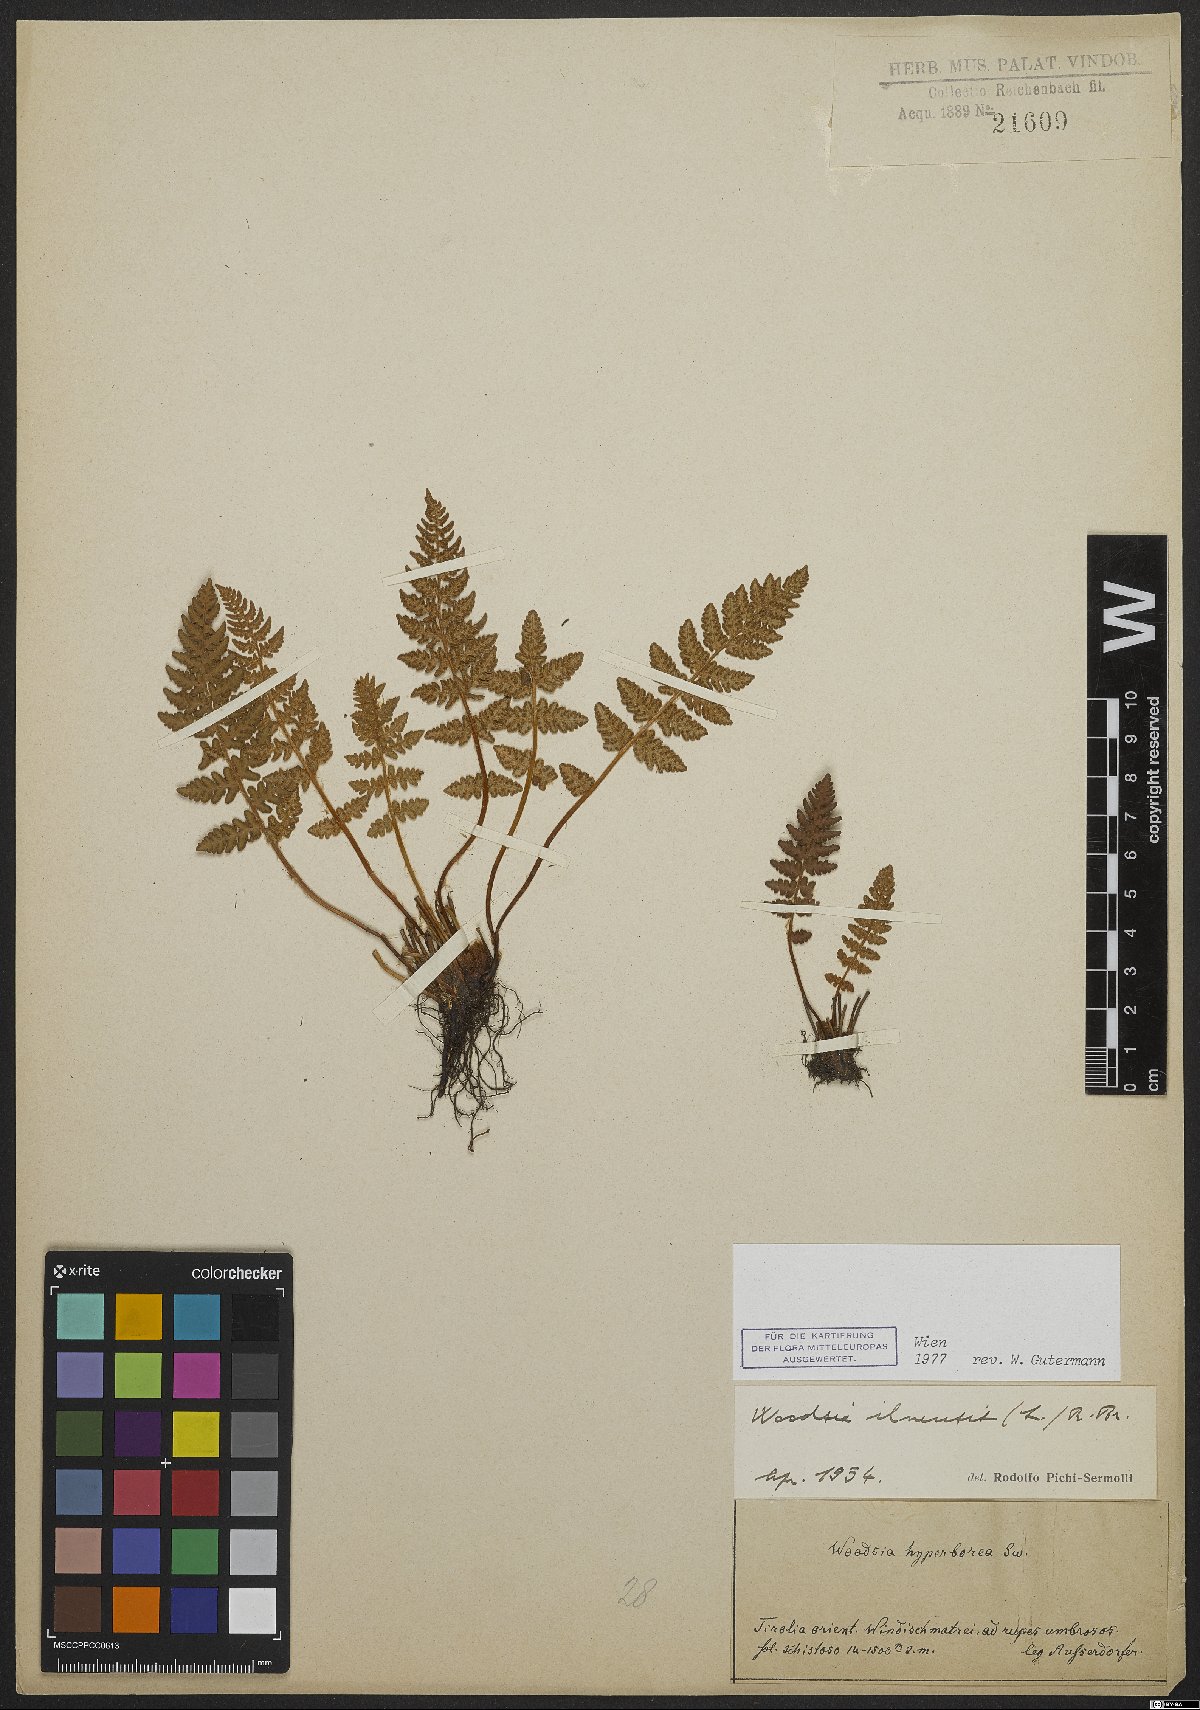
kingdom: Plantae
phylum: Tracheophyta
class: Polypodiopsida
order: Polypodiales
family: Woodsiaceae
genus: Woodsia
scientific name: Woodsia ilvensis
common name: Fragrant woodsia
